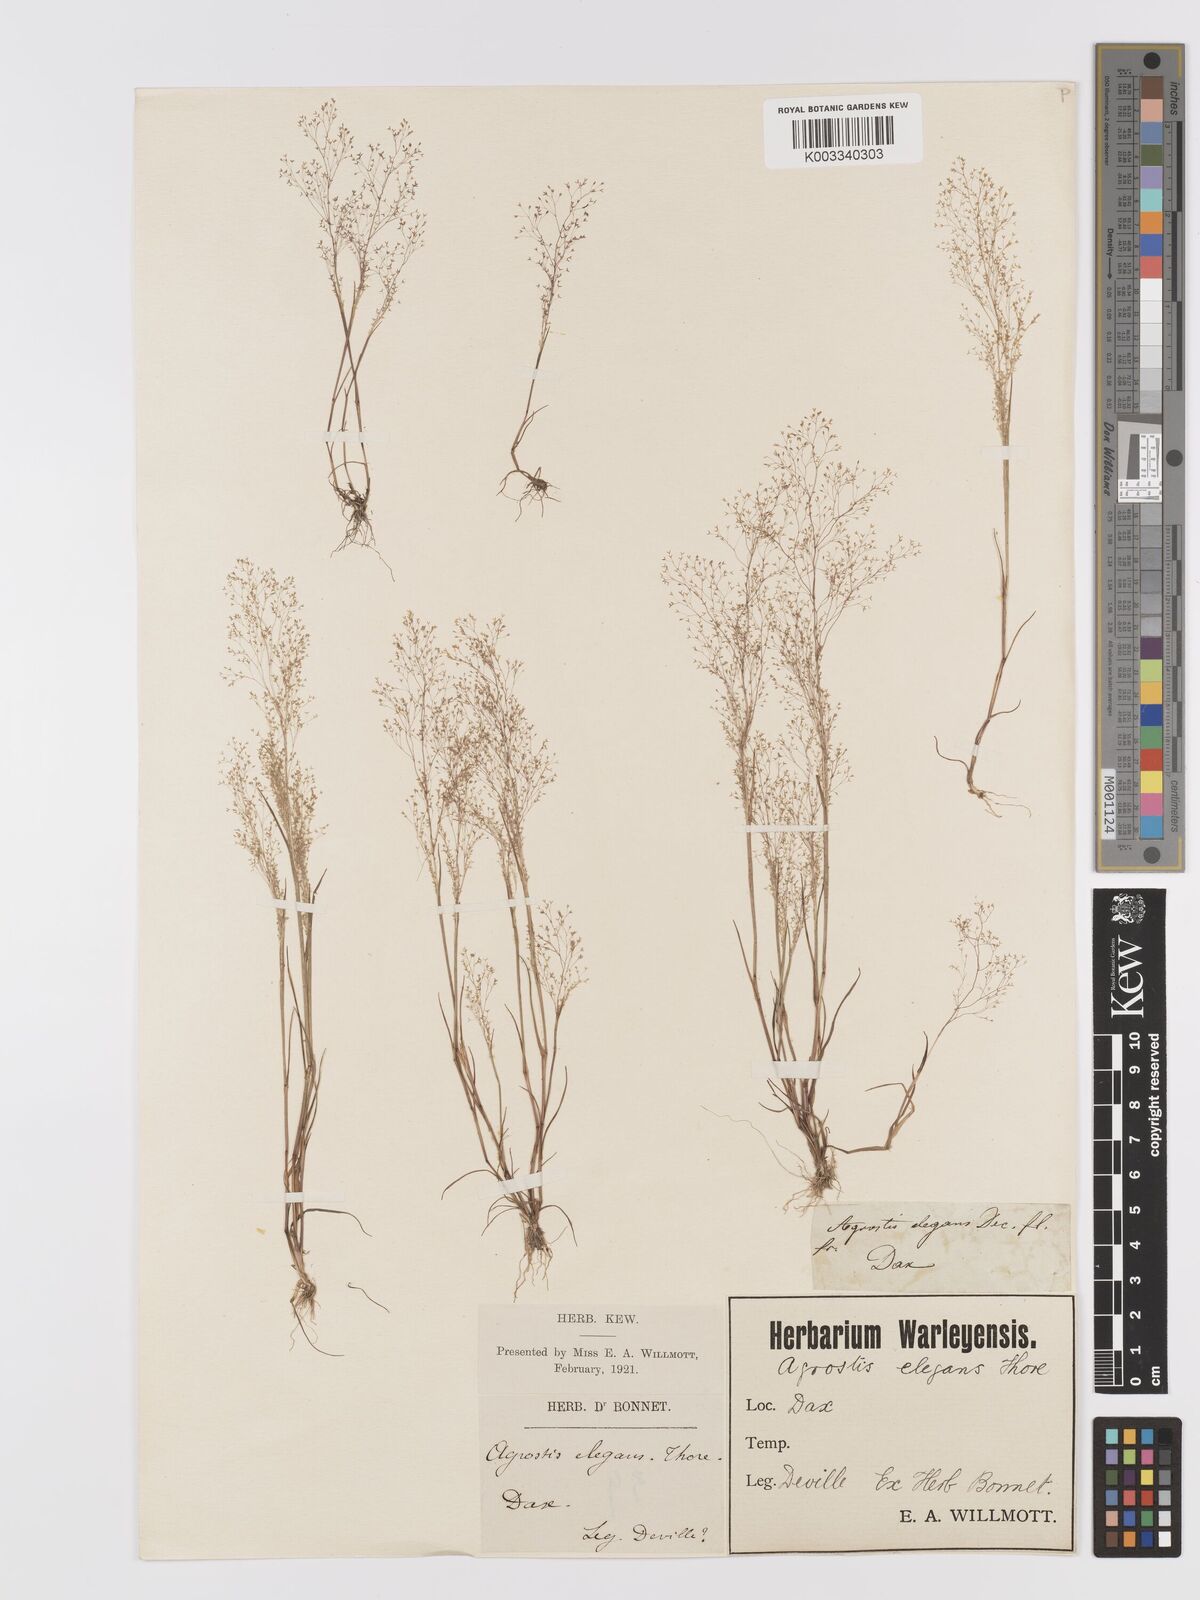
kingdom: Plantae
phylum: Tracheophyta
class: Liliopsida
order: Poales
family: Poaceae
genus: Agrostis
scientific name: Agrostis tenerrima
